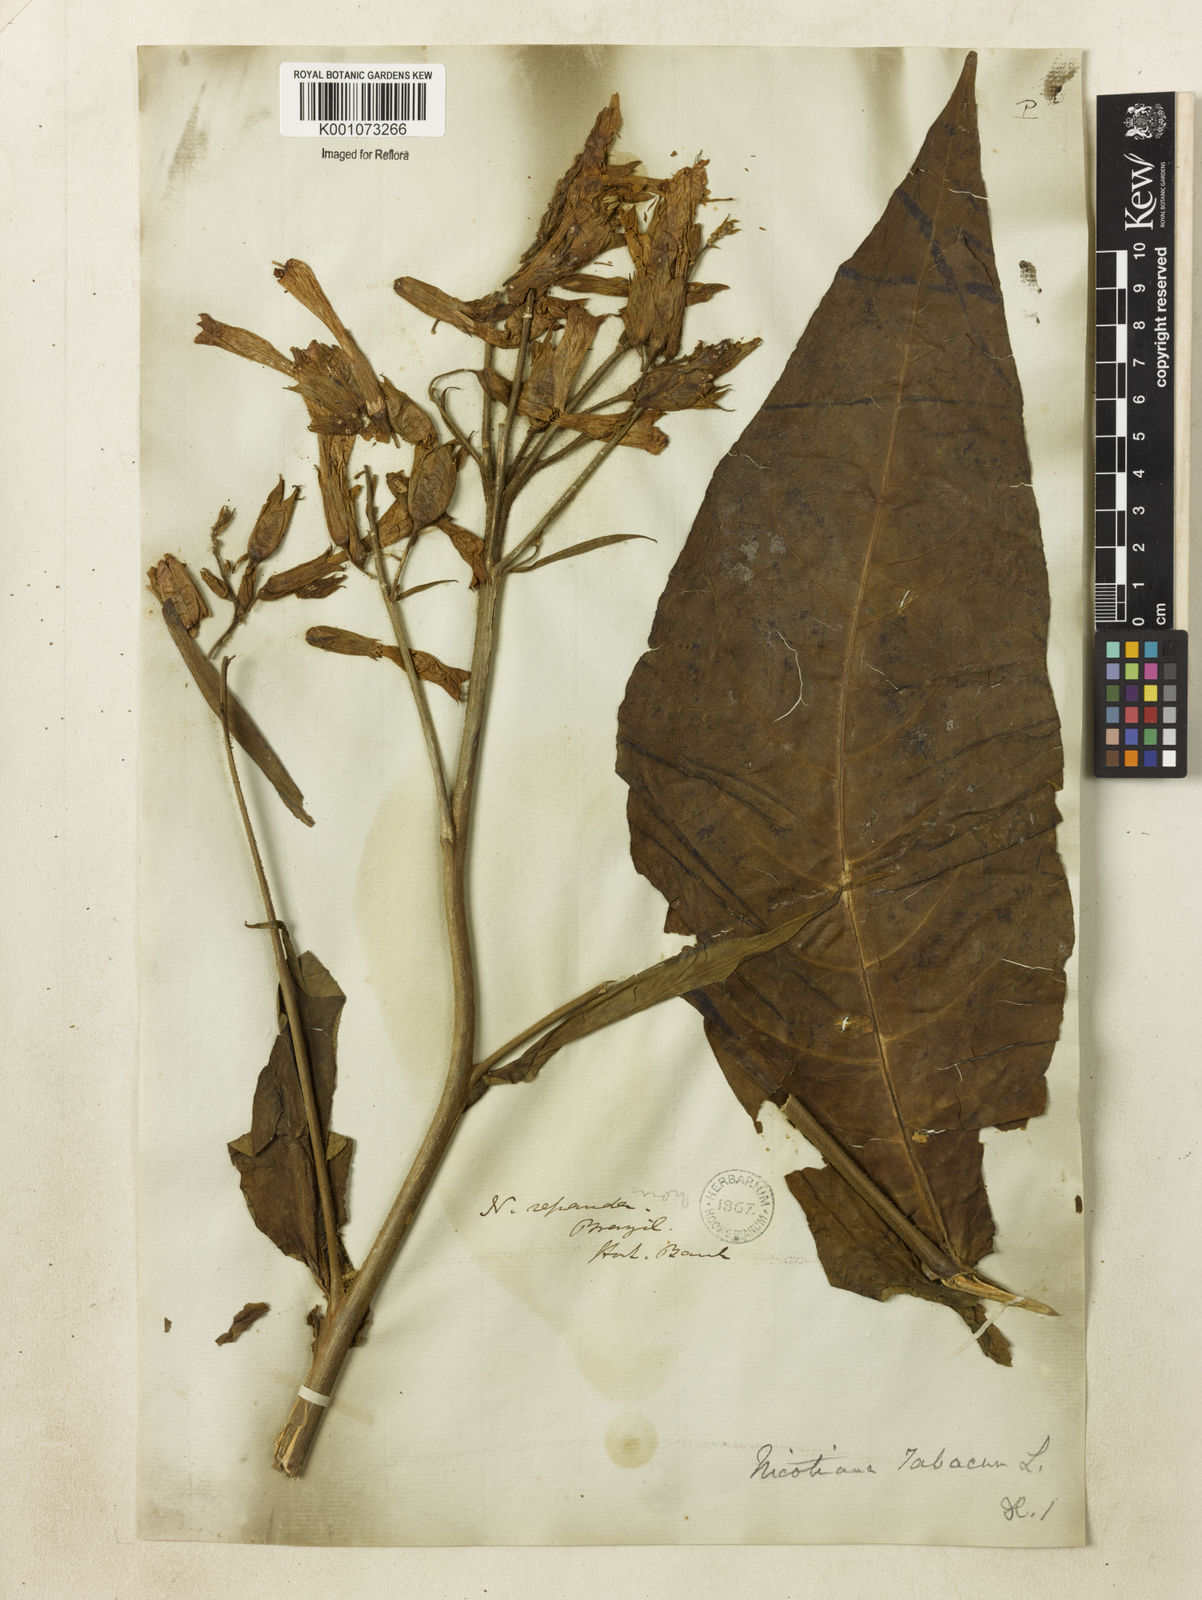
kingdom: Plantae
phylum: Tracheophyta
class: Magnoliopsida
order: Solanales
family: Solanaceae
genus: Nicotiana
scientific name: Nicotiana tabacum
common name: Tobacco
